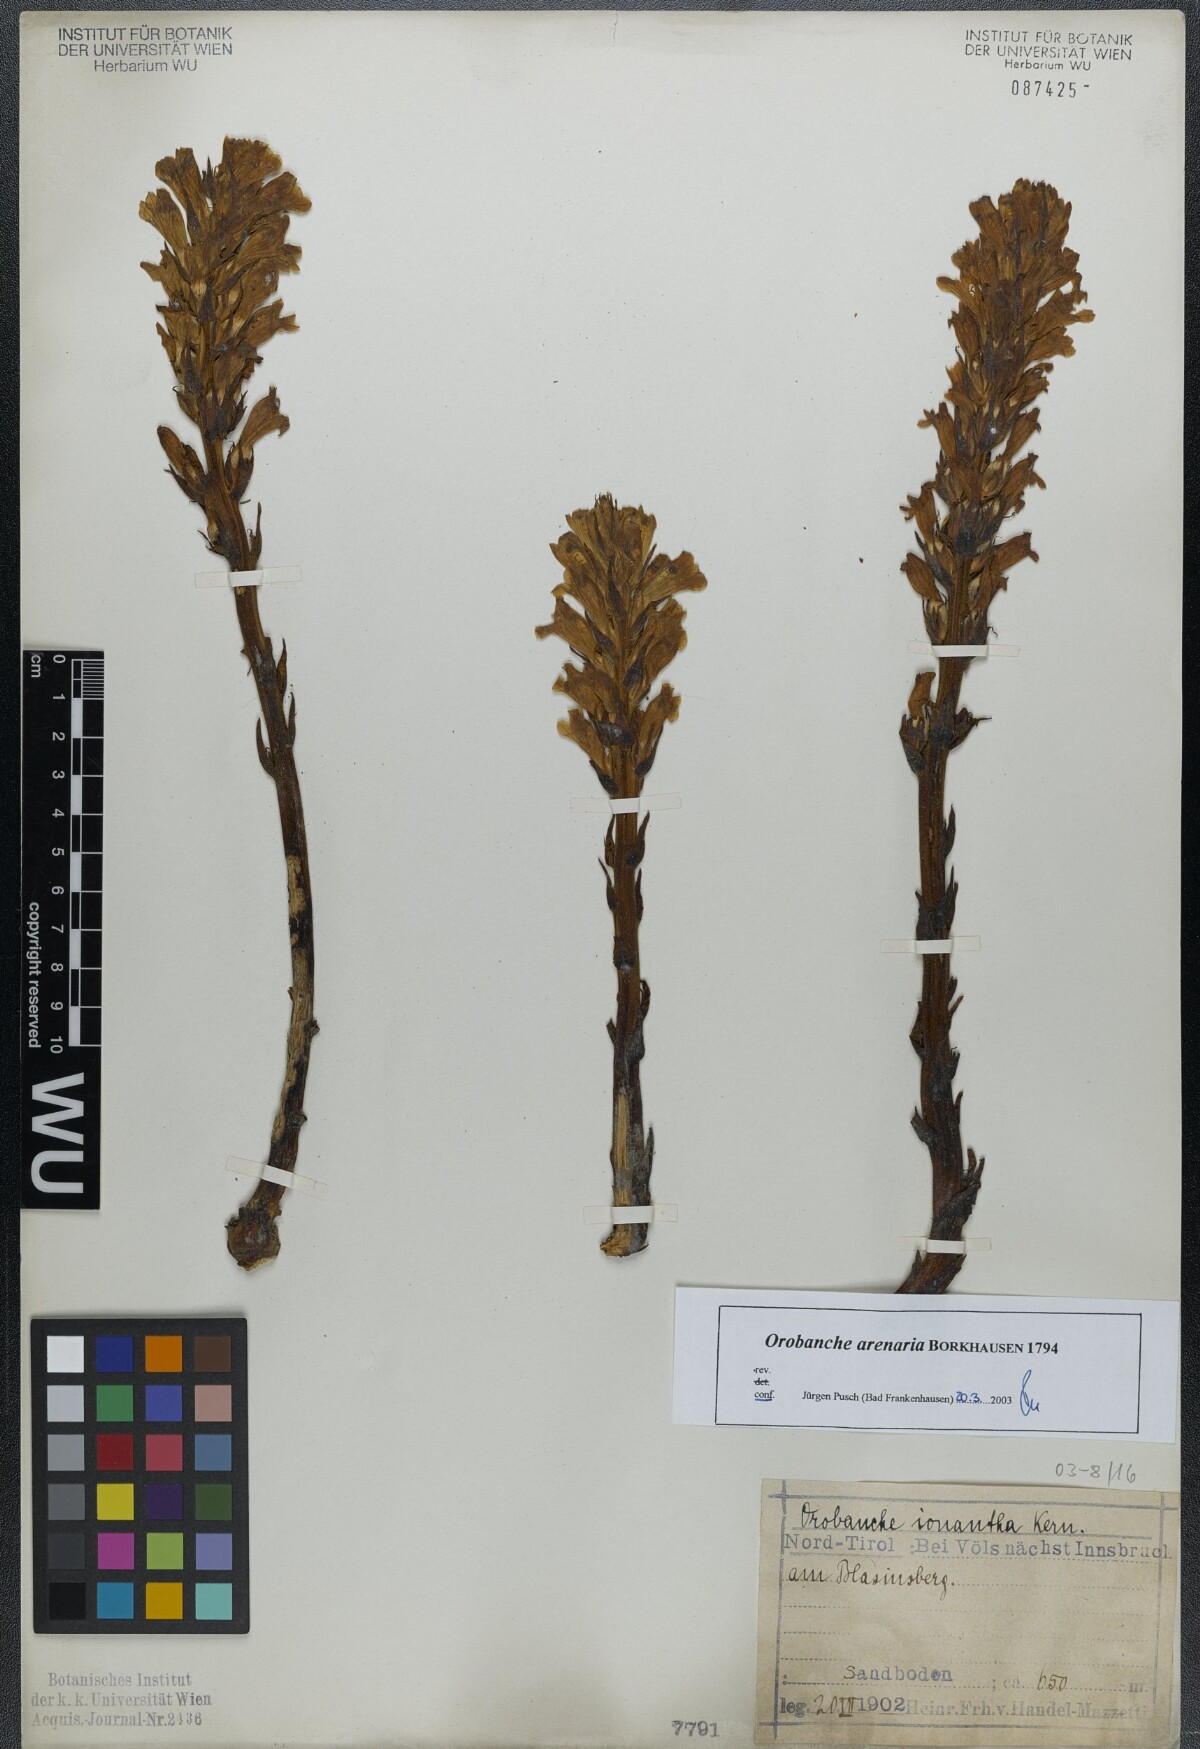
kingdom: Plantae
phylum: Tracheophyta
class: Magnoliopsida
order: Lamiales
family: Orobanchaceae
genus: Phelipanche
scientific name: Phelipanche arenaria
